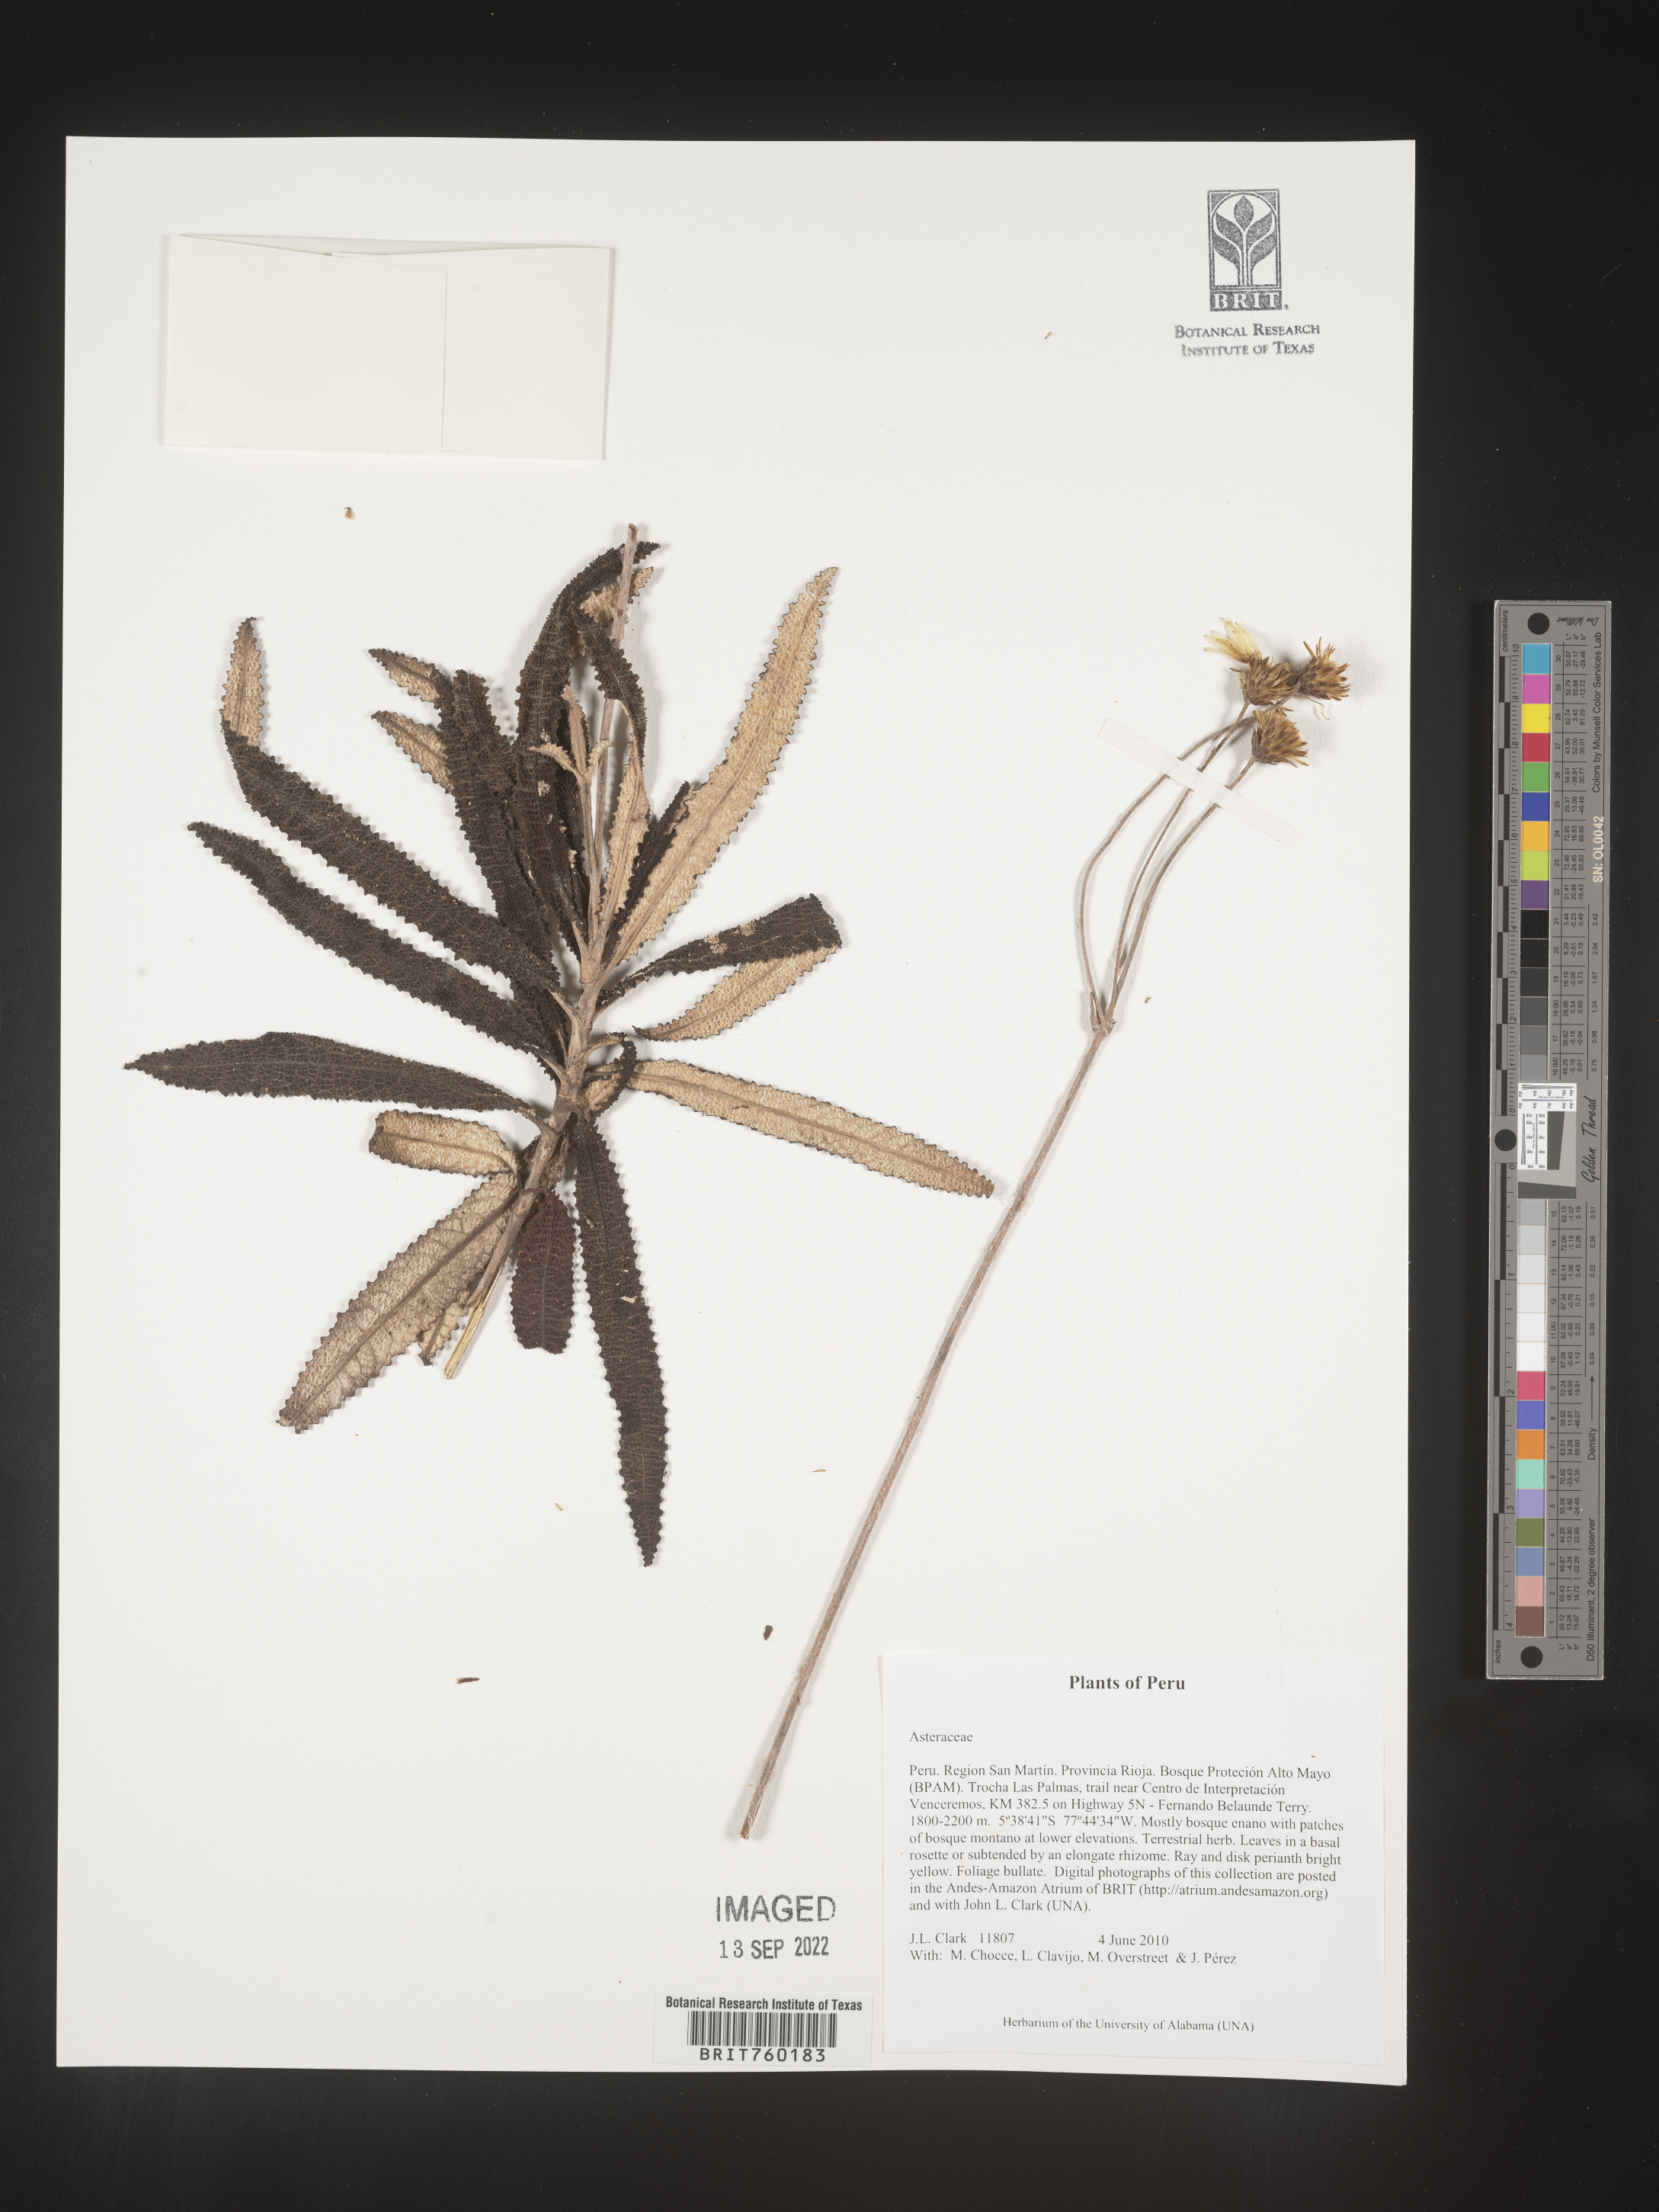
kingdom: Plantae
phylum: Tracheophyta
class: Magnoliopsida
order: Asterales
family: Asteraceae
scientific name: Asteraceae
